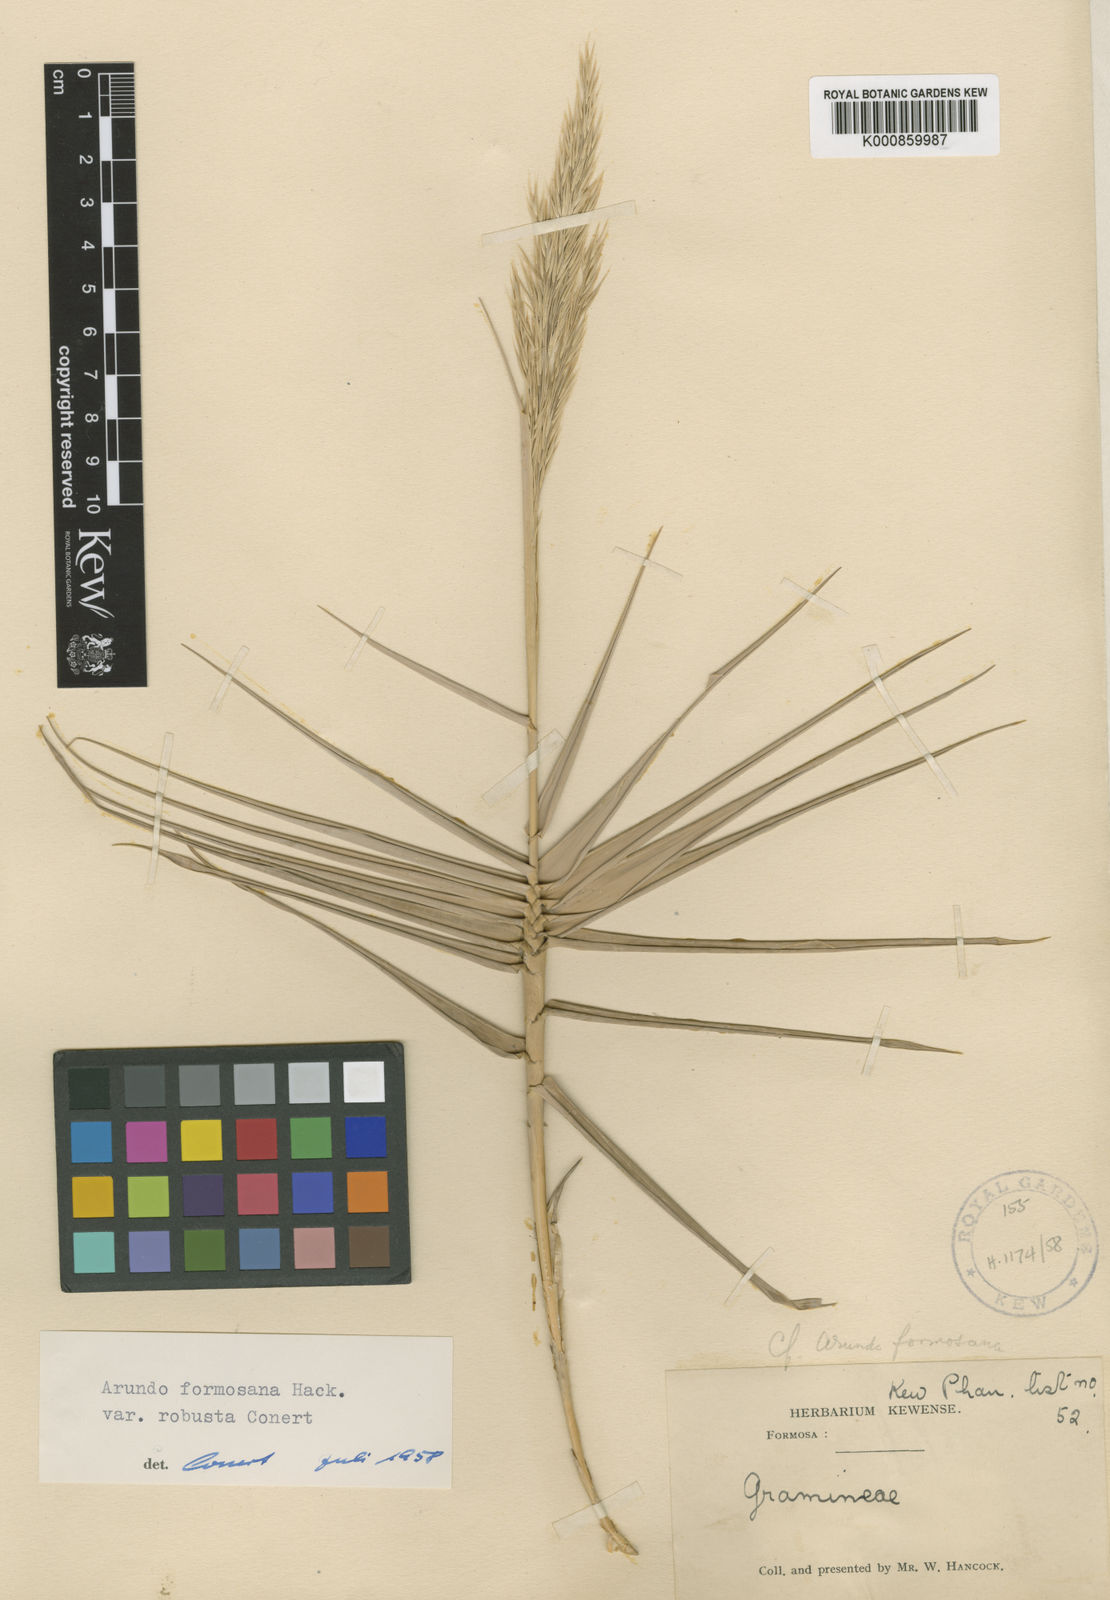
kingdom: Plantae
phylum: Tracheophyta
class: Liliopsida
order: Poales
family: Poaceae
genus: Arundo
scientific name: Arundo formosana
